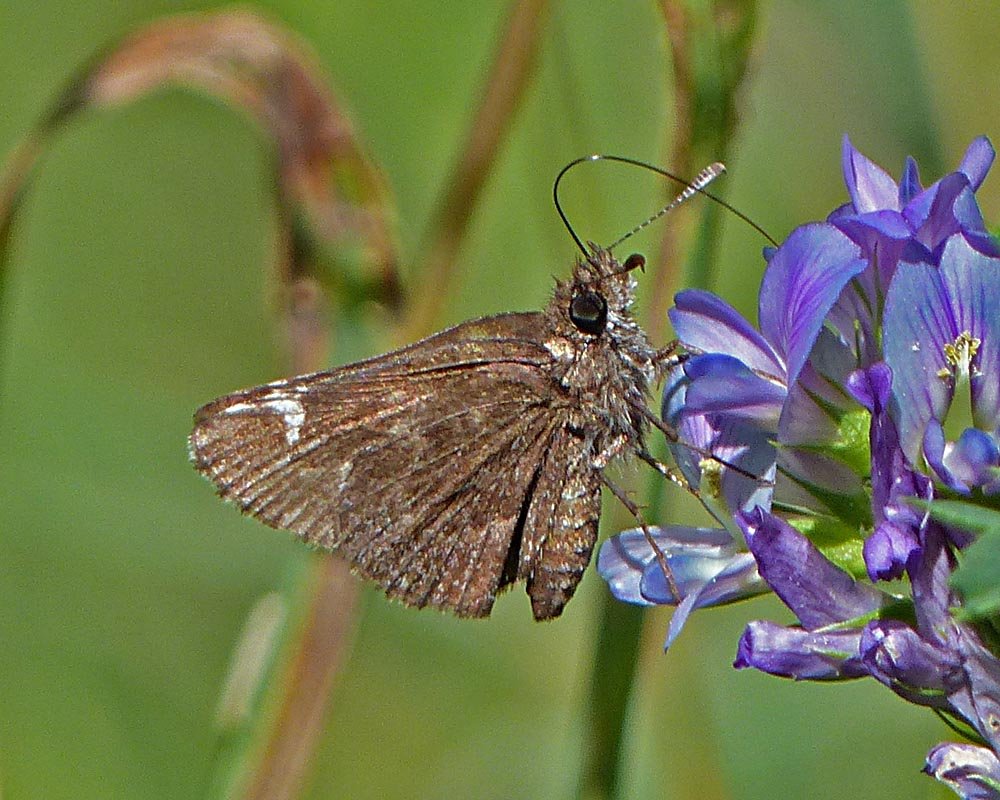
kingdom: Animalia
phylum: Arthropoda
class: Insecta
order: Lepidoptera
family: Hesperiidae
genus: Mastor
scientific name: Mastor vialis
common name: Common Roadside-Skipper
